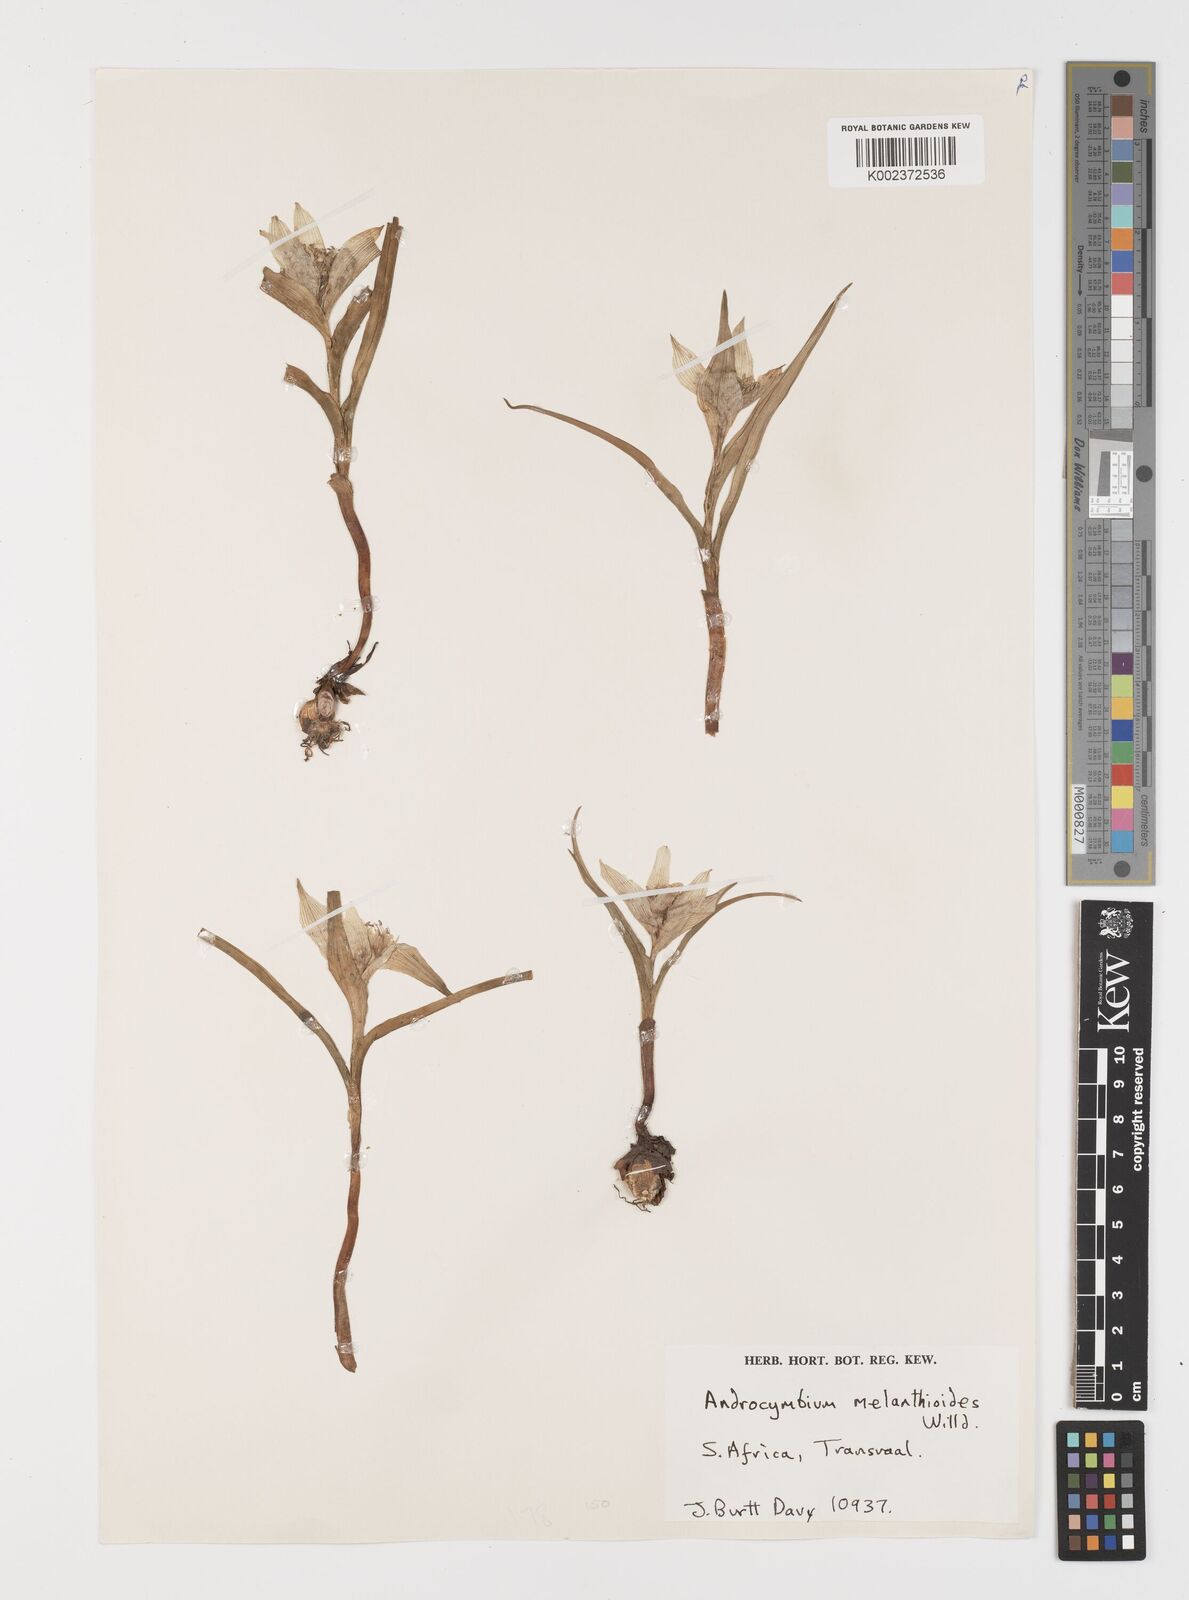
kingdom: Plantae
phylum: Tracheophyta
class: Liliopsida
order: Liliales
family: Colchicaceae
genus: Colchicum
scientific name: Colchicum melanthioides
